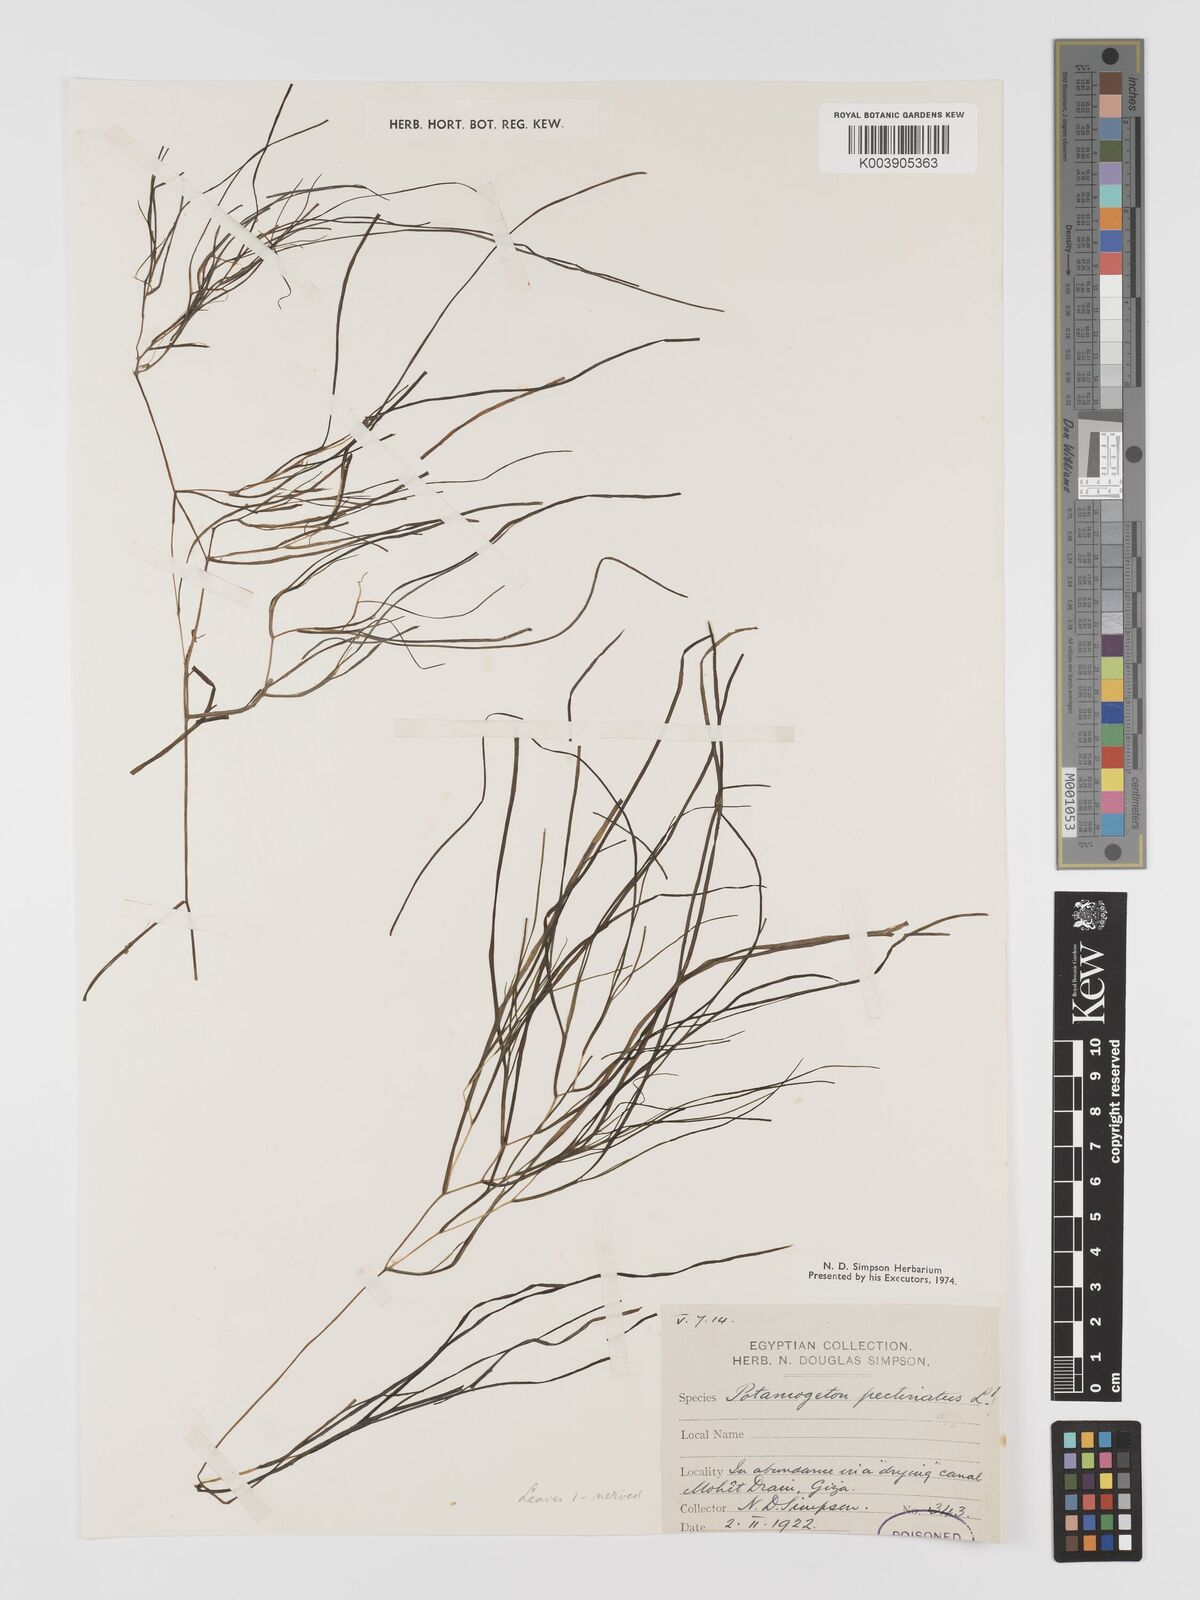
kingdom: Plantae
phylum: Tracheophyta
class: Liliopsida
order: Alismatales
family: Potamogetonaceae
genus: Stuckenia
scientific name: Stuckenia pectinata
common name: Sago pondweed
